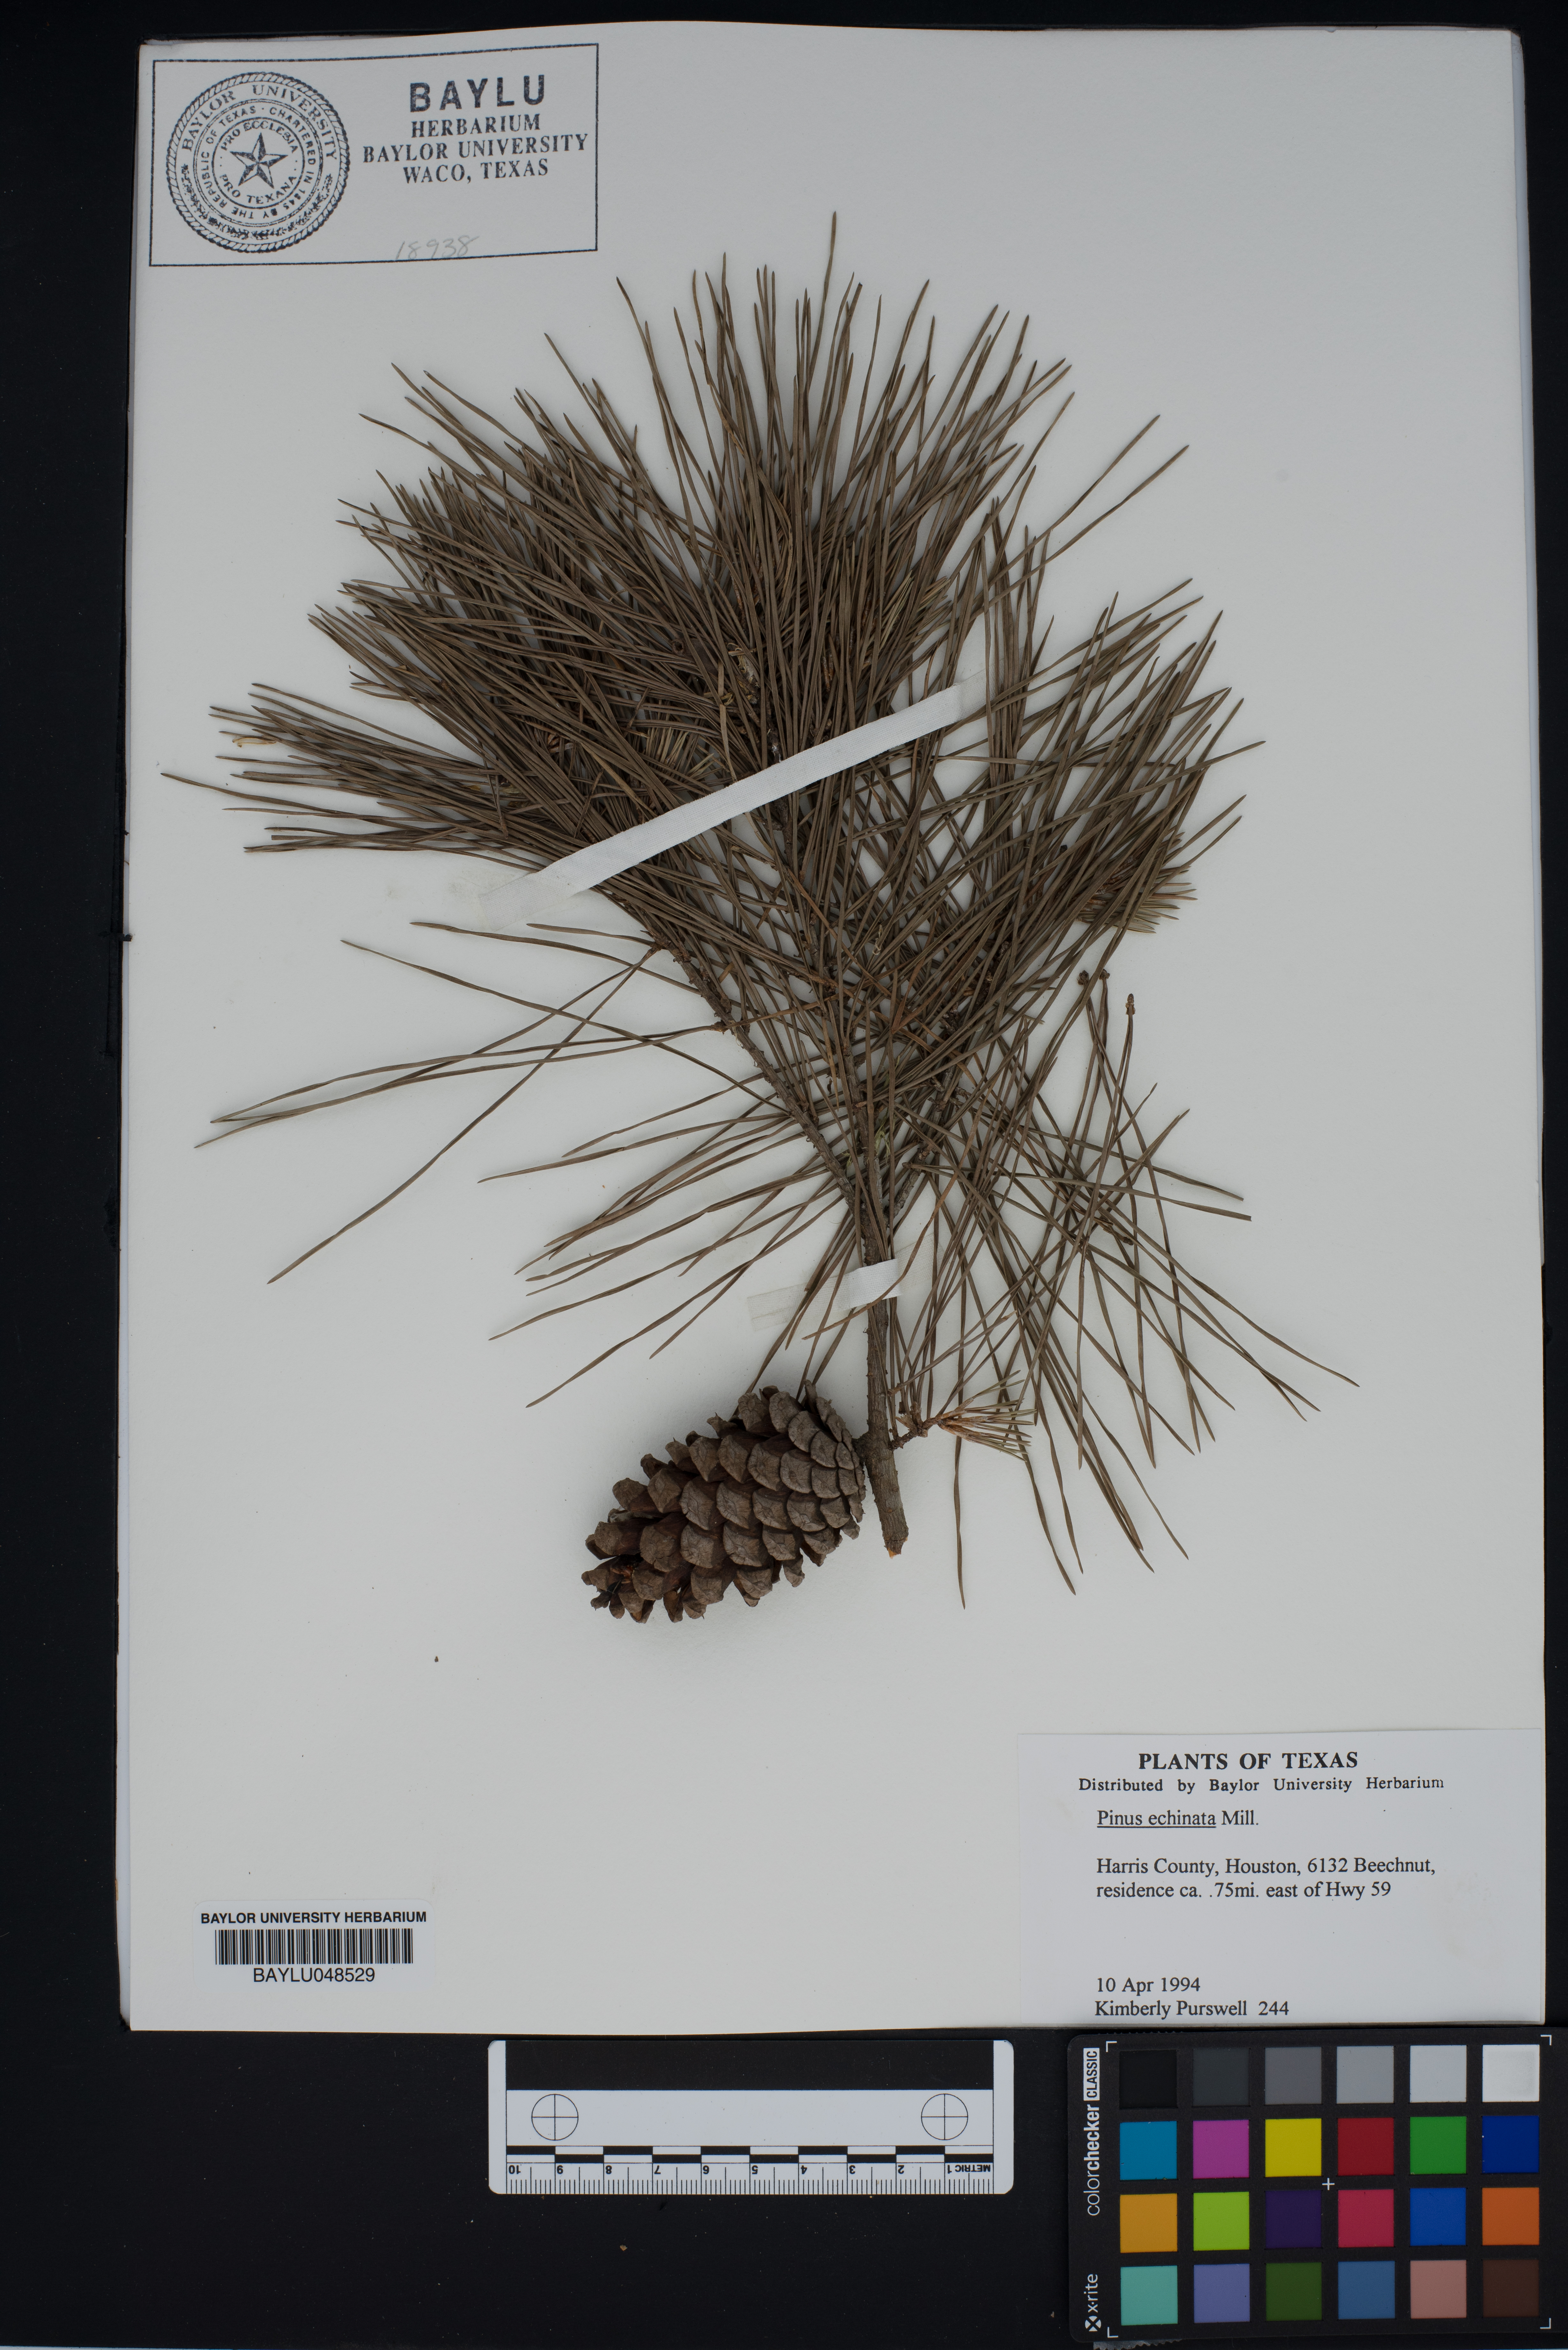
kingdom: Plantae
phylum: Tracheophyta
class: Pinopsida
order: Pinales
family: Pinaceae
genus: Pinus
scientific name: Pinus echinata
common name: Shortleaf pine
